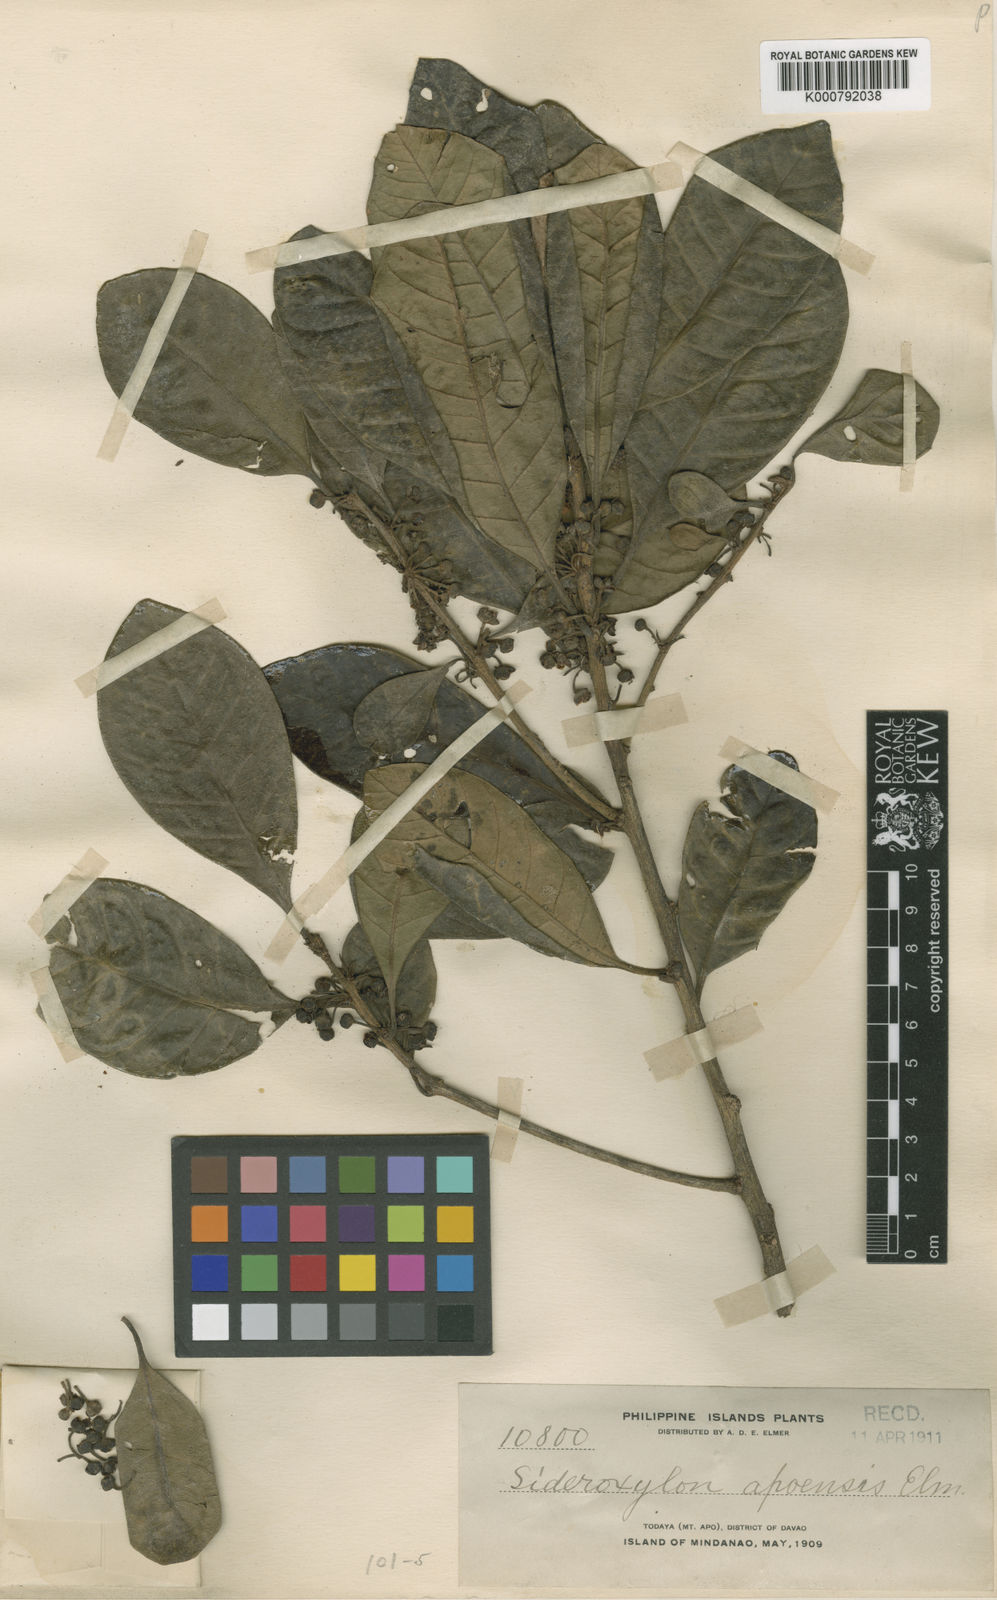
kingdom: Plantae
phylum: Tracheophyta
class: Magnoliopsida
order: Ericales
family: Sapotaceae
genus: Planchonella
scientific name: Planchonella obovata
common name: Black-ash
